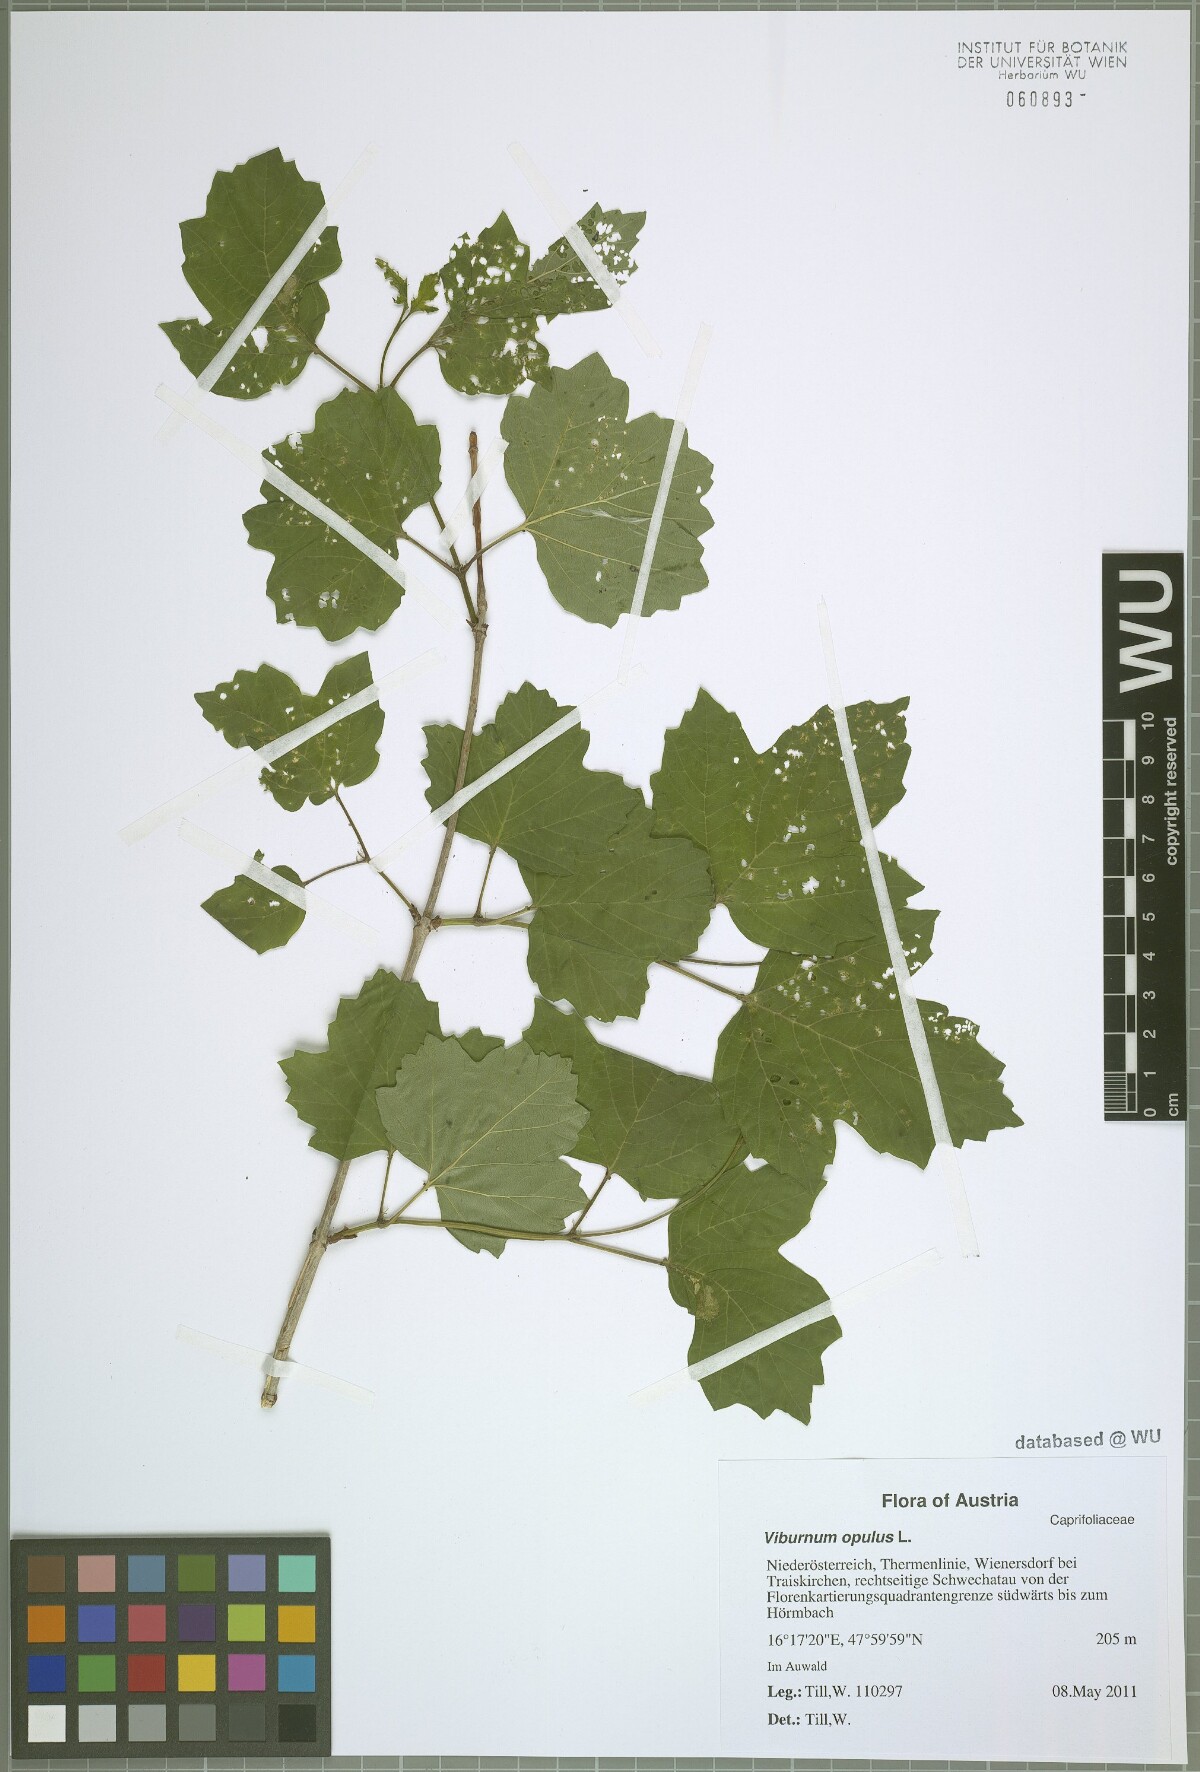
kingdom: Plantae
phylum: Tracheophyta
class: Magnoliopsida
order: Dipsacales
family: Viburnaceae
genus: Viburnum
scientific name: Viburnum opulus
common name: Guelder-rose
